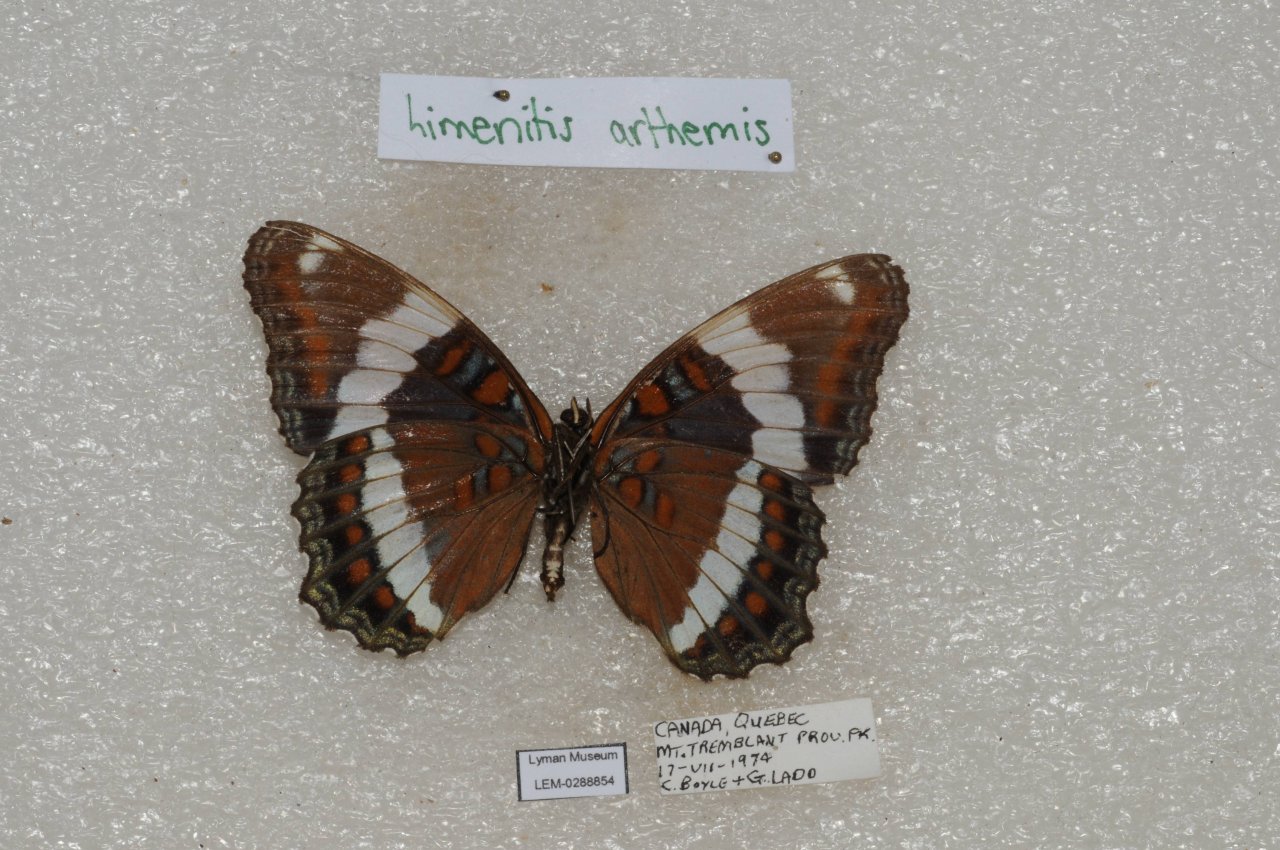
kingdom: Animalia
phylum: Arthropoda
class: Insecta
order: Lepidoptera
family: Nymphalidae
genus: Limenitis
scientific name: Limenitis arthemis
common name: Red-spotted Admiral
